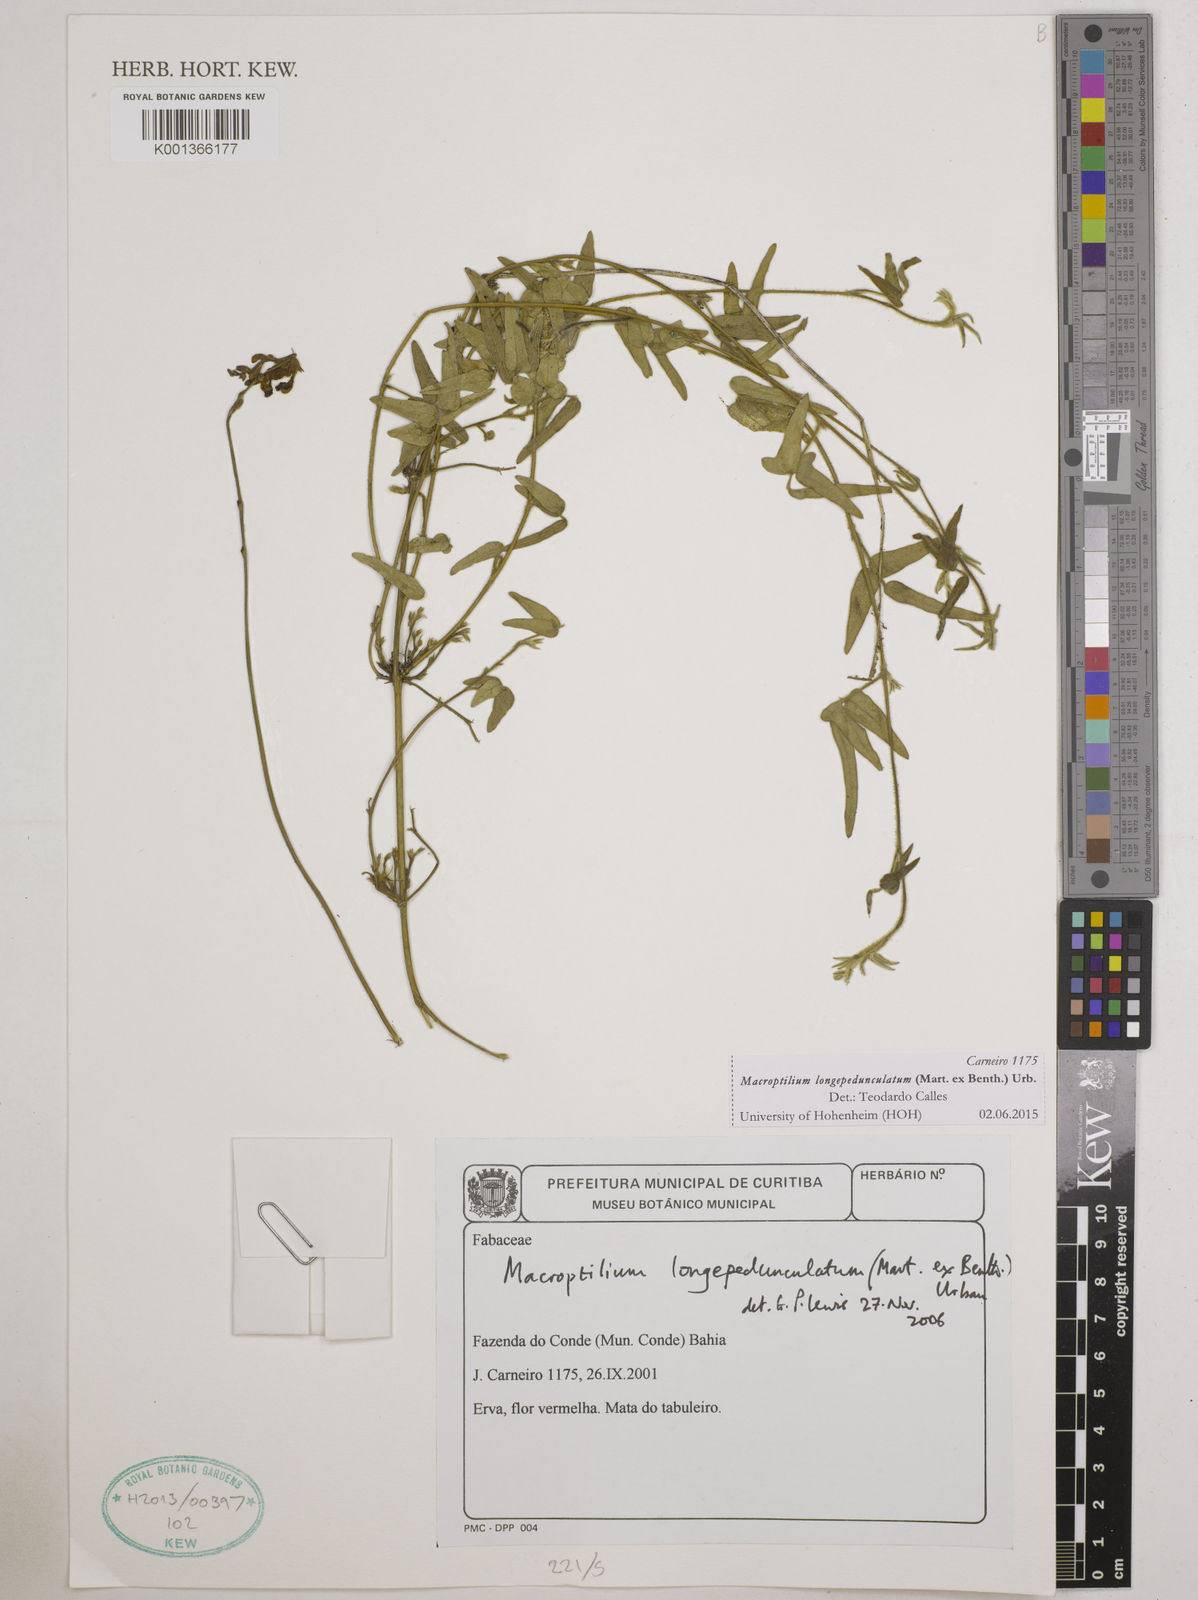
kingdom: Plantae
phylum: Tracheophyta
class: Magnoliopsida
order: Fabales
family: Fabaceae
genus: Macroptilium
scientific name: Macroptilium longepedunculatum
